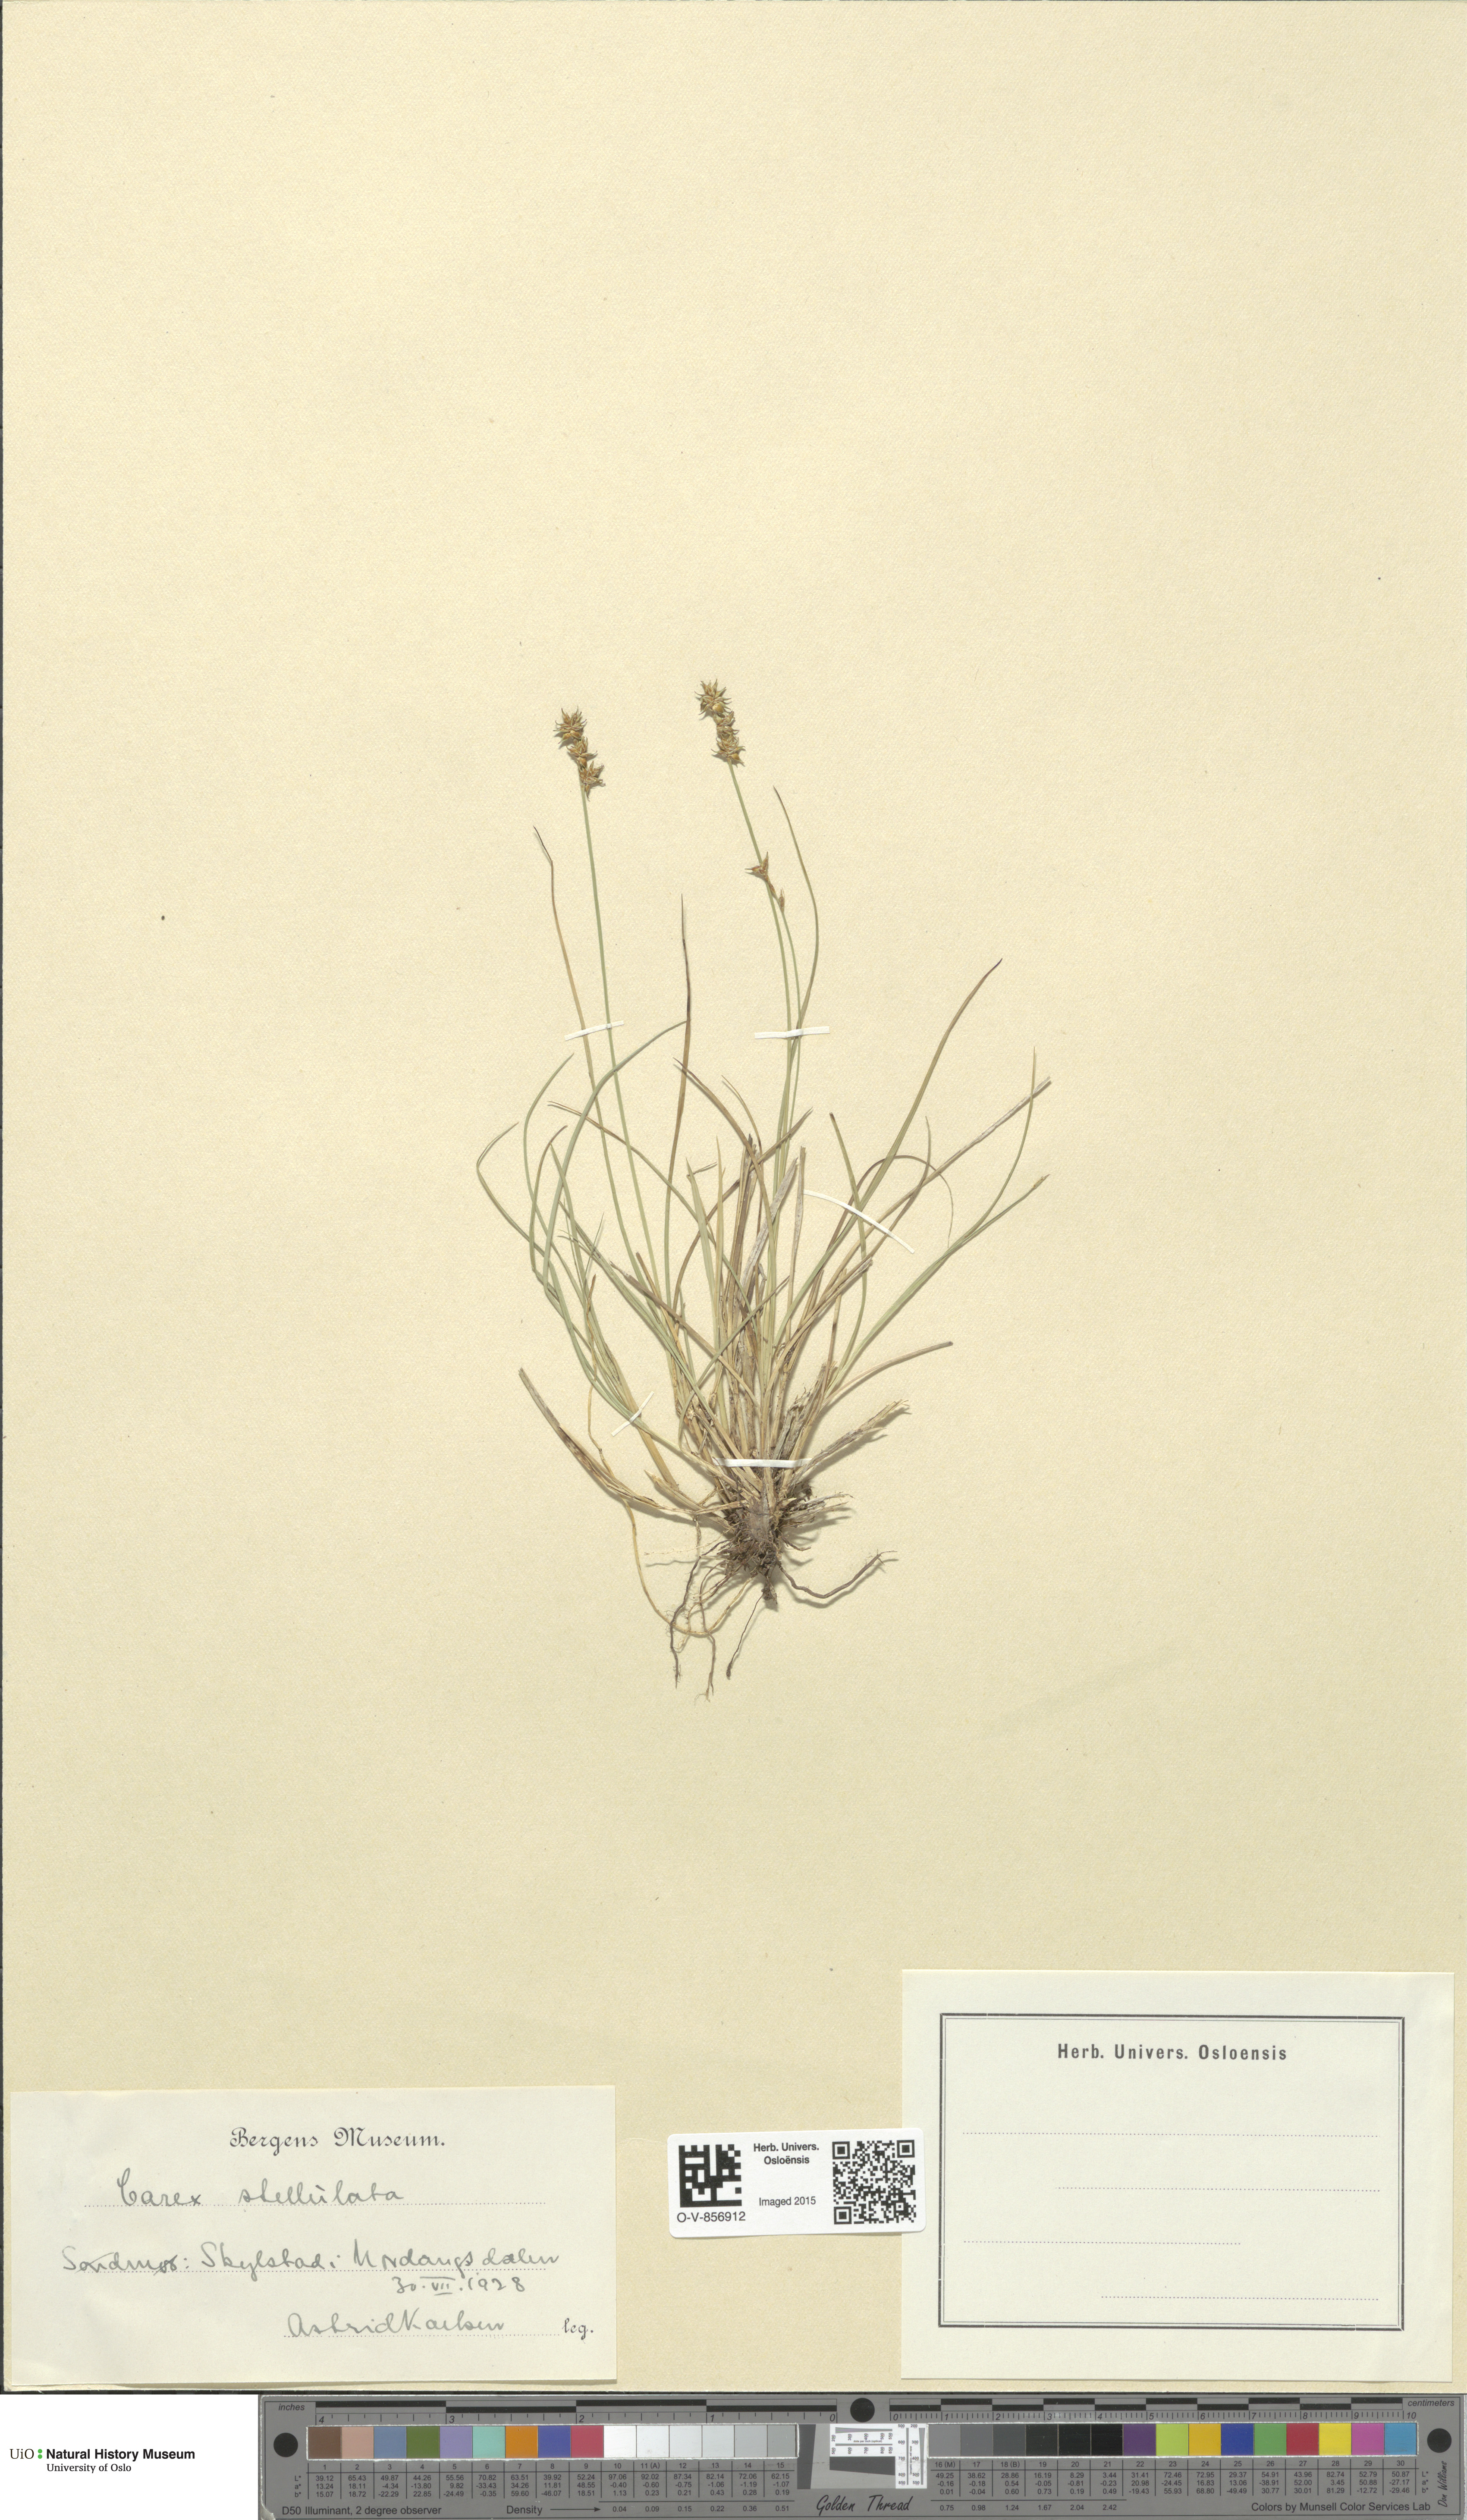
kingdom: Plantae
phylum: Tracheophyta
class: Liliopsida
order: Poales
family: Cyperaceae
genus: Carex
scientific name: Carex echinata
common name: Star sedge
